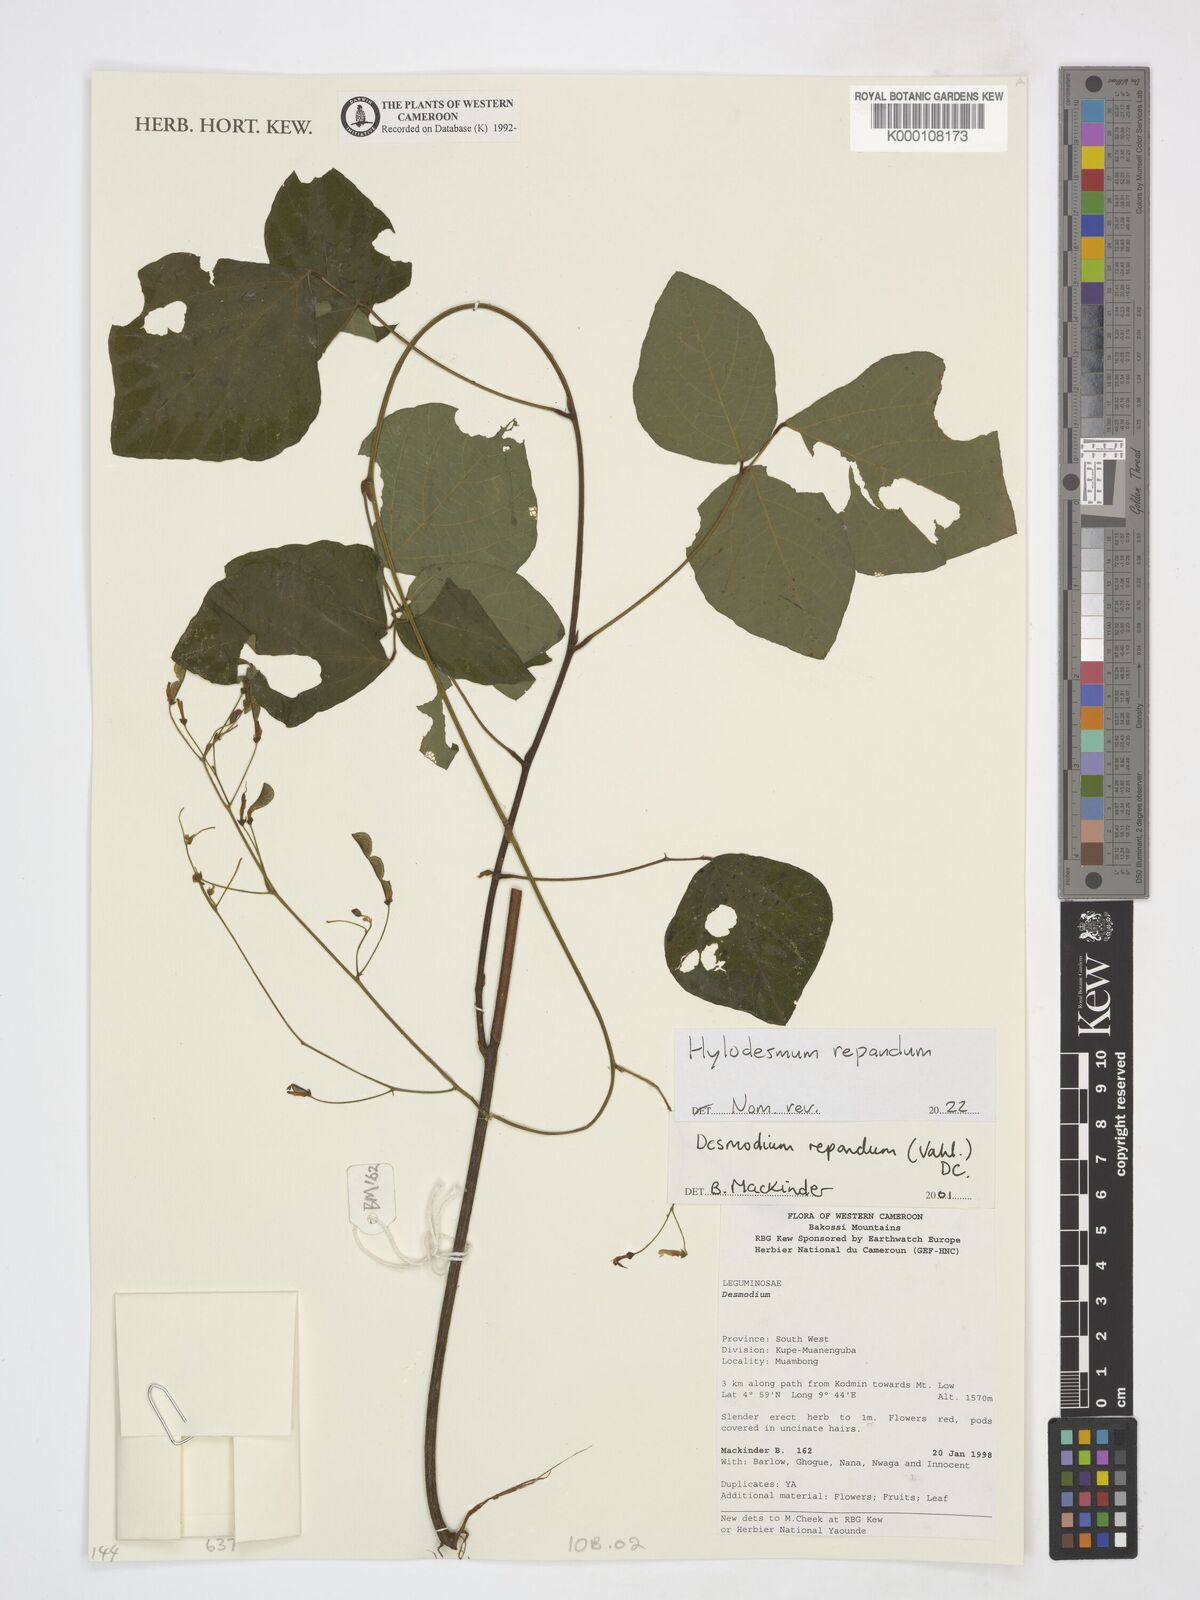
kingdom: Plantae
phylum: Tracheophyta
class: Magnoliopsida
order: Fabales
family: Fabaceae
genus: Desmodium
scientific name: Desmodium
